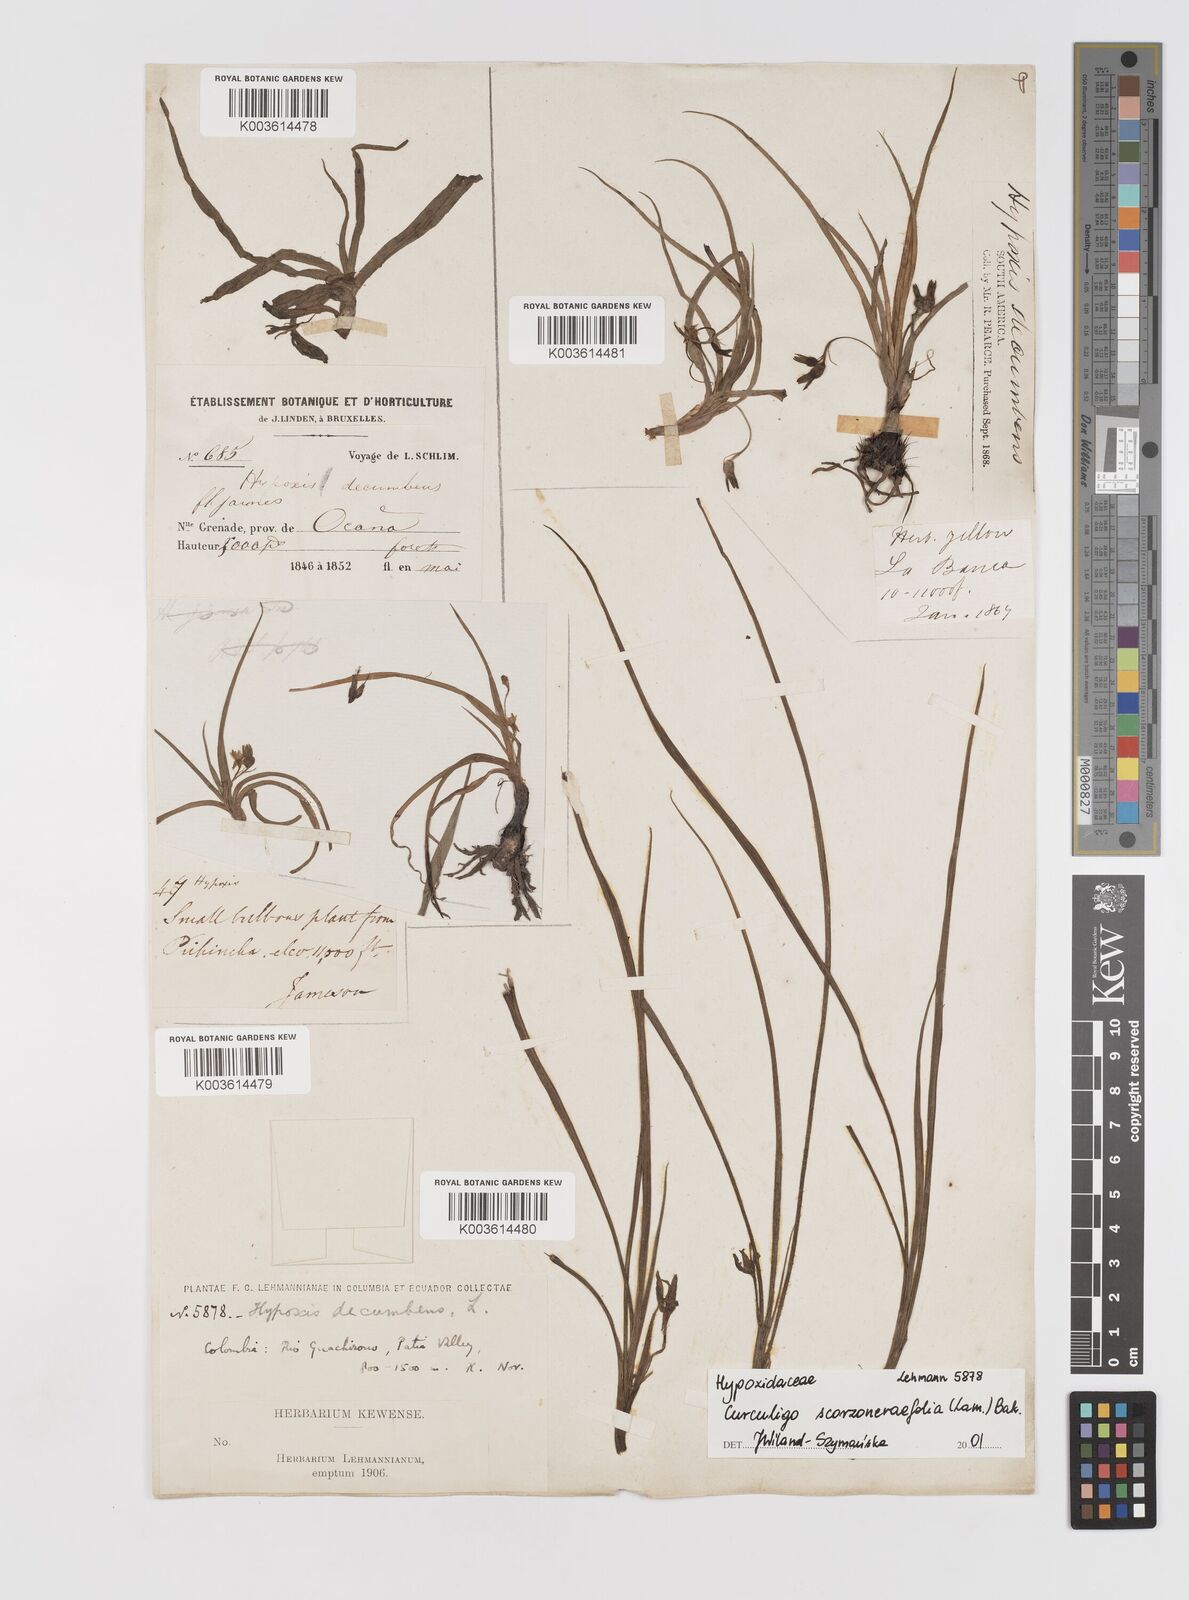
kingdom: Plantae
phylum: Tracheophyta
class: Liliopsida
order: Asparagales
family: Hypoxidaceae
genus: Curculigo
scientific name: Curculigo scorzonerifolia
